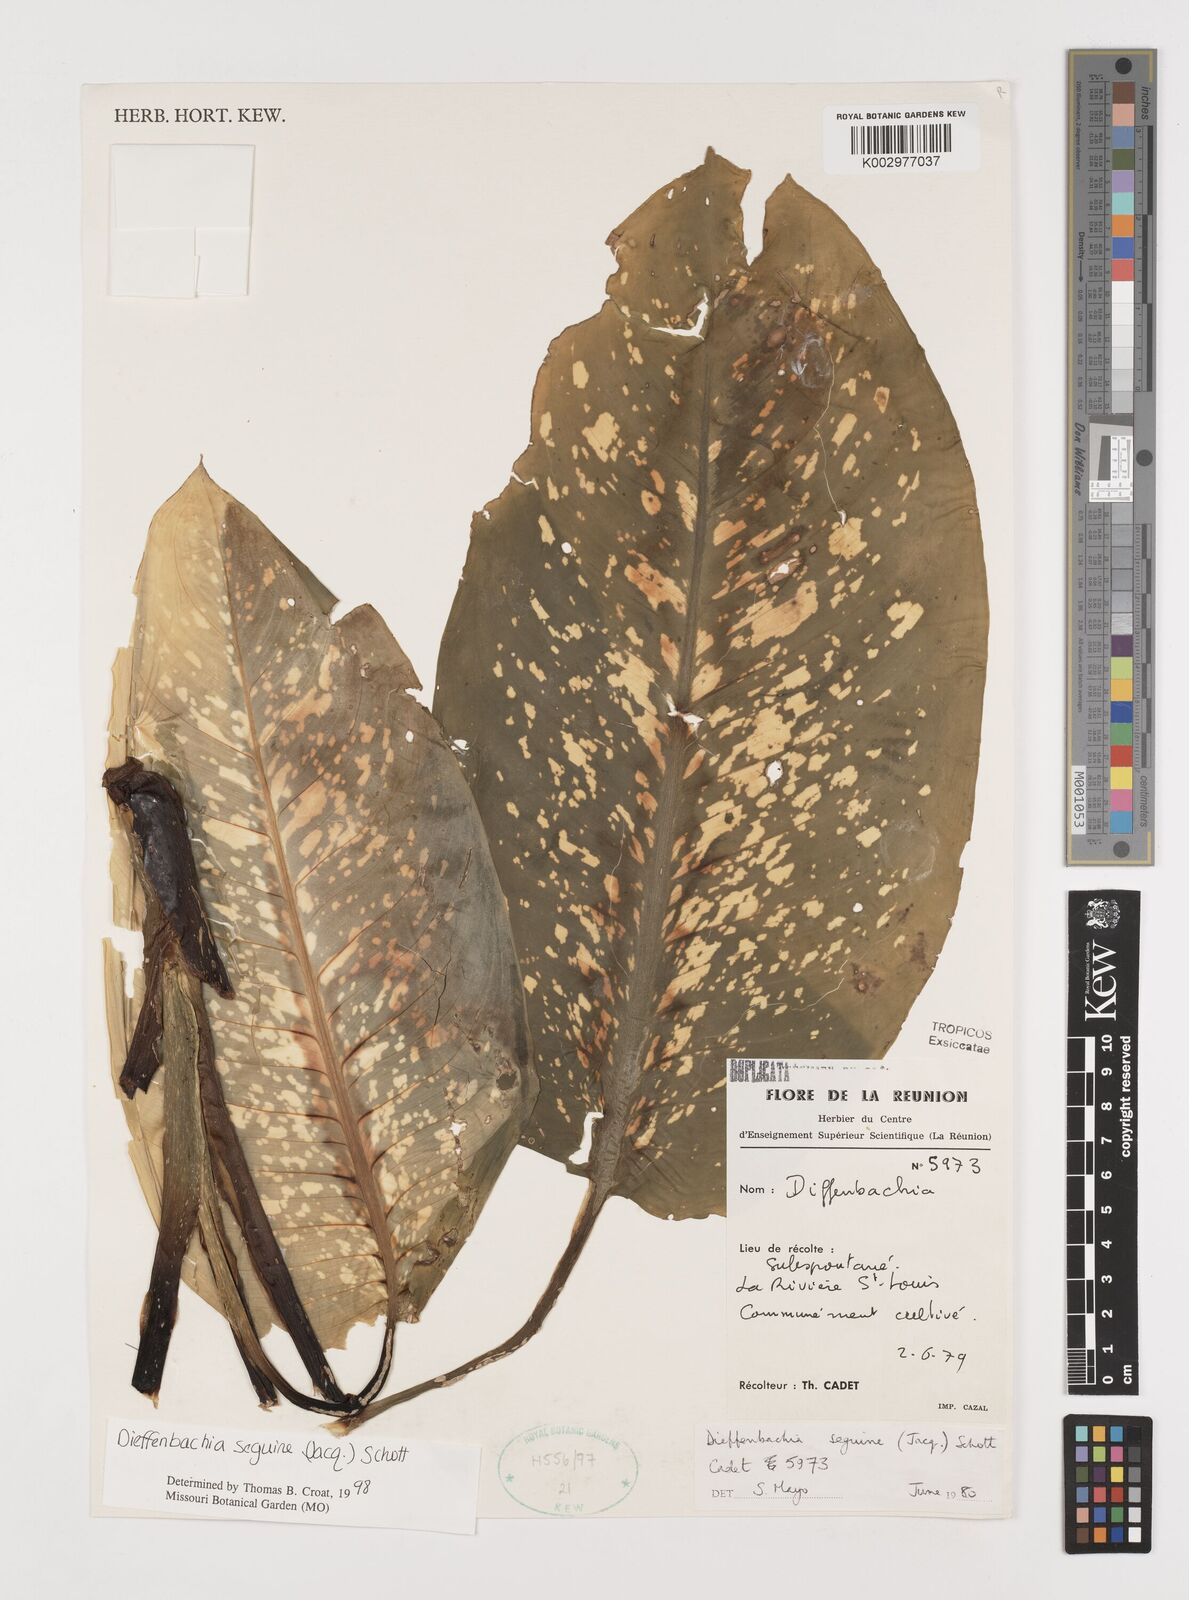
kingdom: Plantae
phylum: Tracheophyta
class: Liliopsida
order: Alismatales
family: Araceae
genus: Dieffenbachia
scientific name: Dieffenbachia seguine
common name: Dumbcane
